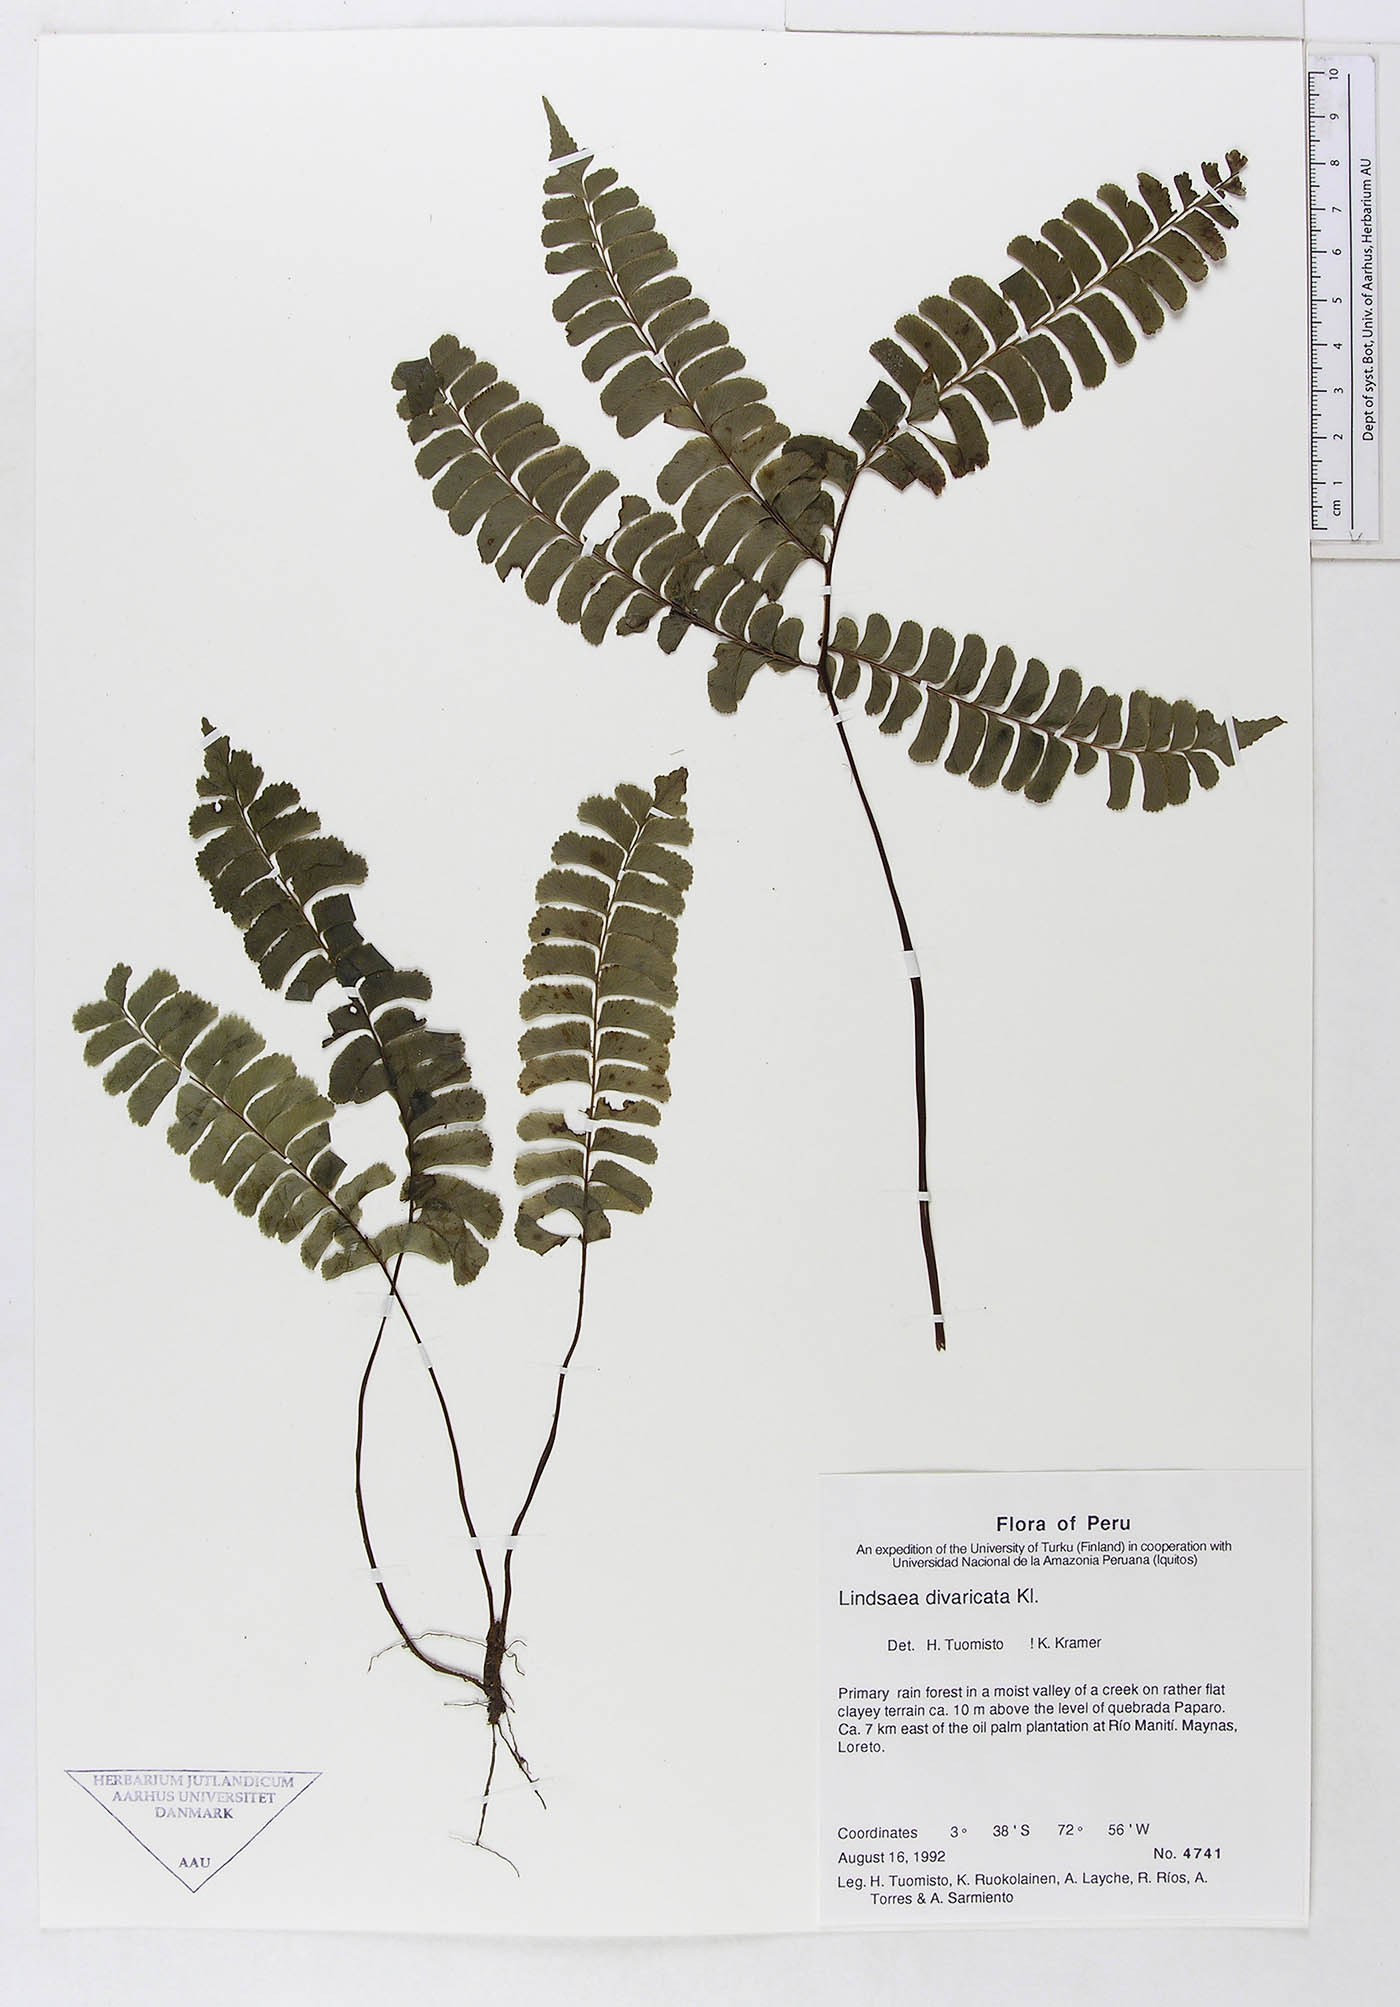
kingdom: Plantae
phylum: Tracheophyta
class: Polypodiopsida
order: Polypodiales
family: Lindsaeaceae
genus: Lindsaea
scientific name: Lindsaea divaricata
